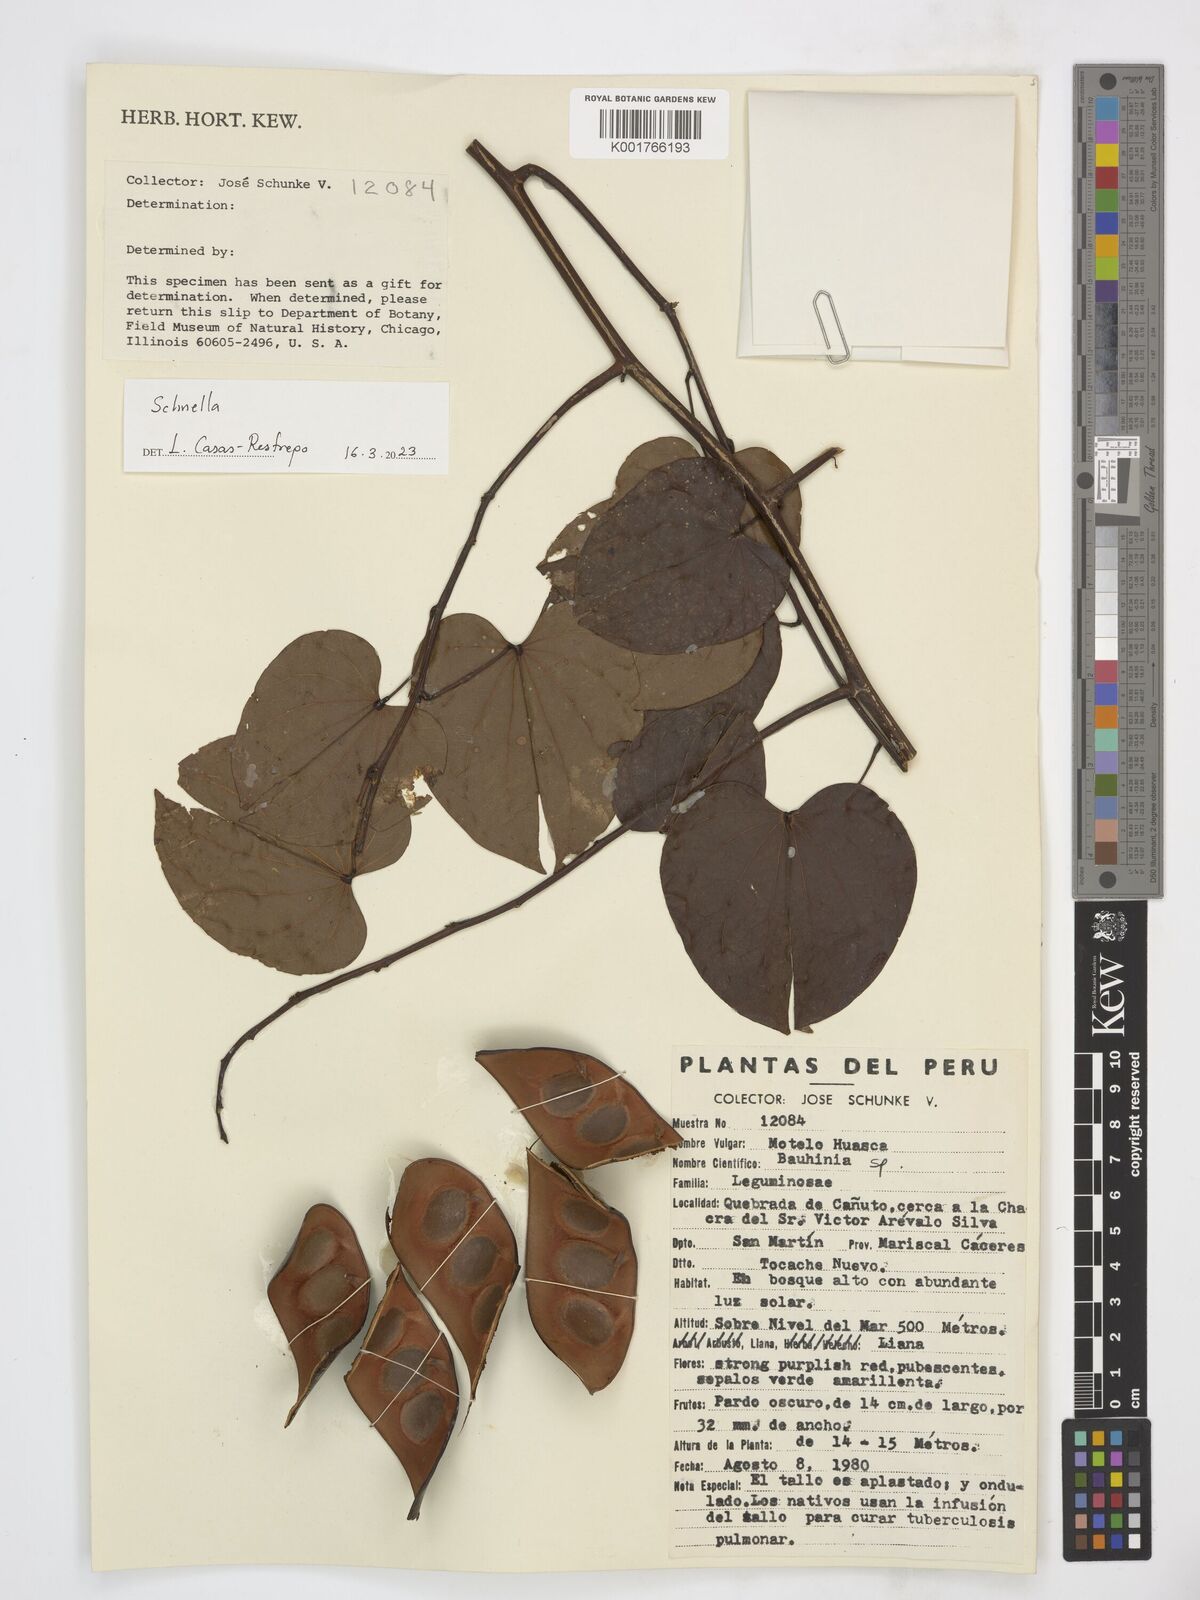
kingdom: Plantae
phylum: Tracheophyta
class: Magnoliopsida
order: Fabales
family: Fabaceae
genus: Schnella
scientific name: Schnella
